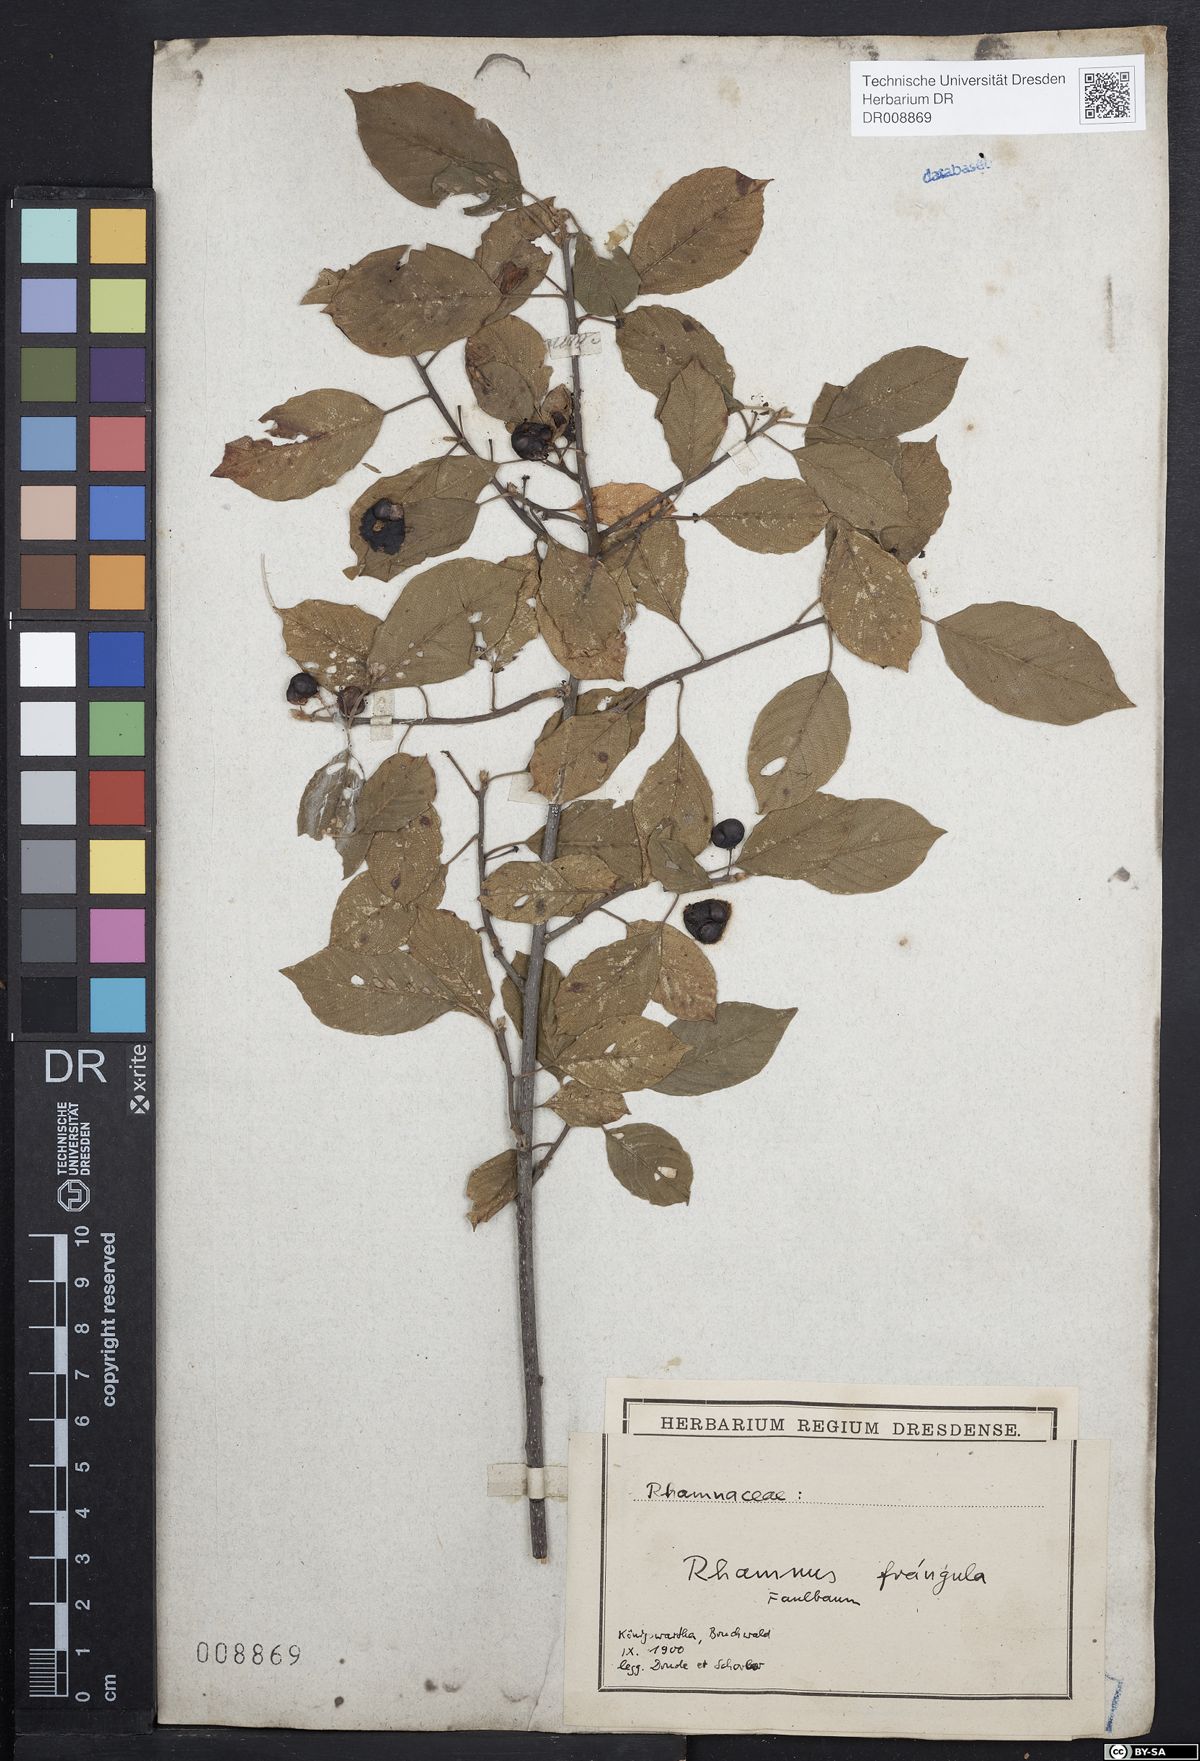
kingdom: Plantae
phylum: Tracheophyta
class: Magnoliopsida
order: Rosales
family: Rhamnaceae
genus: Frangula
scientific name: Frangula alnus
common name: Alder buckthorn
